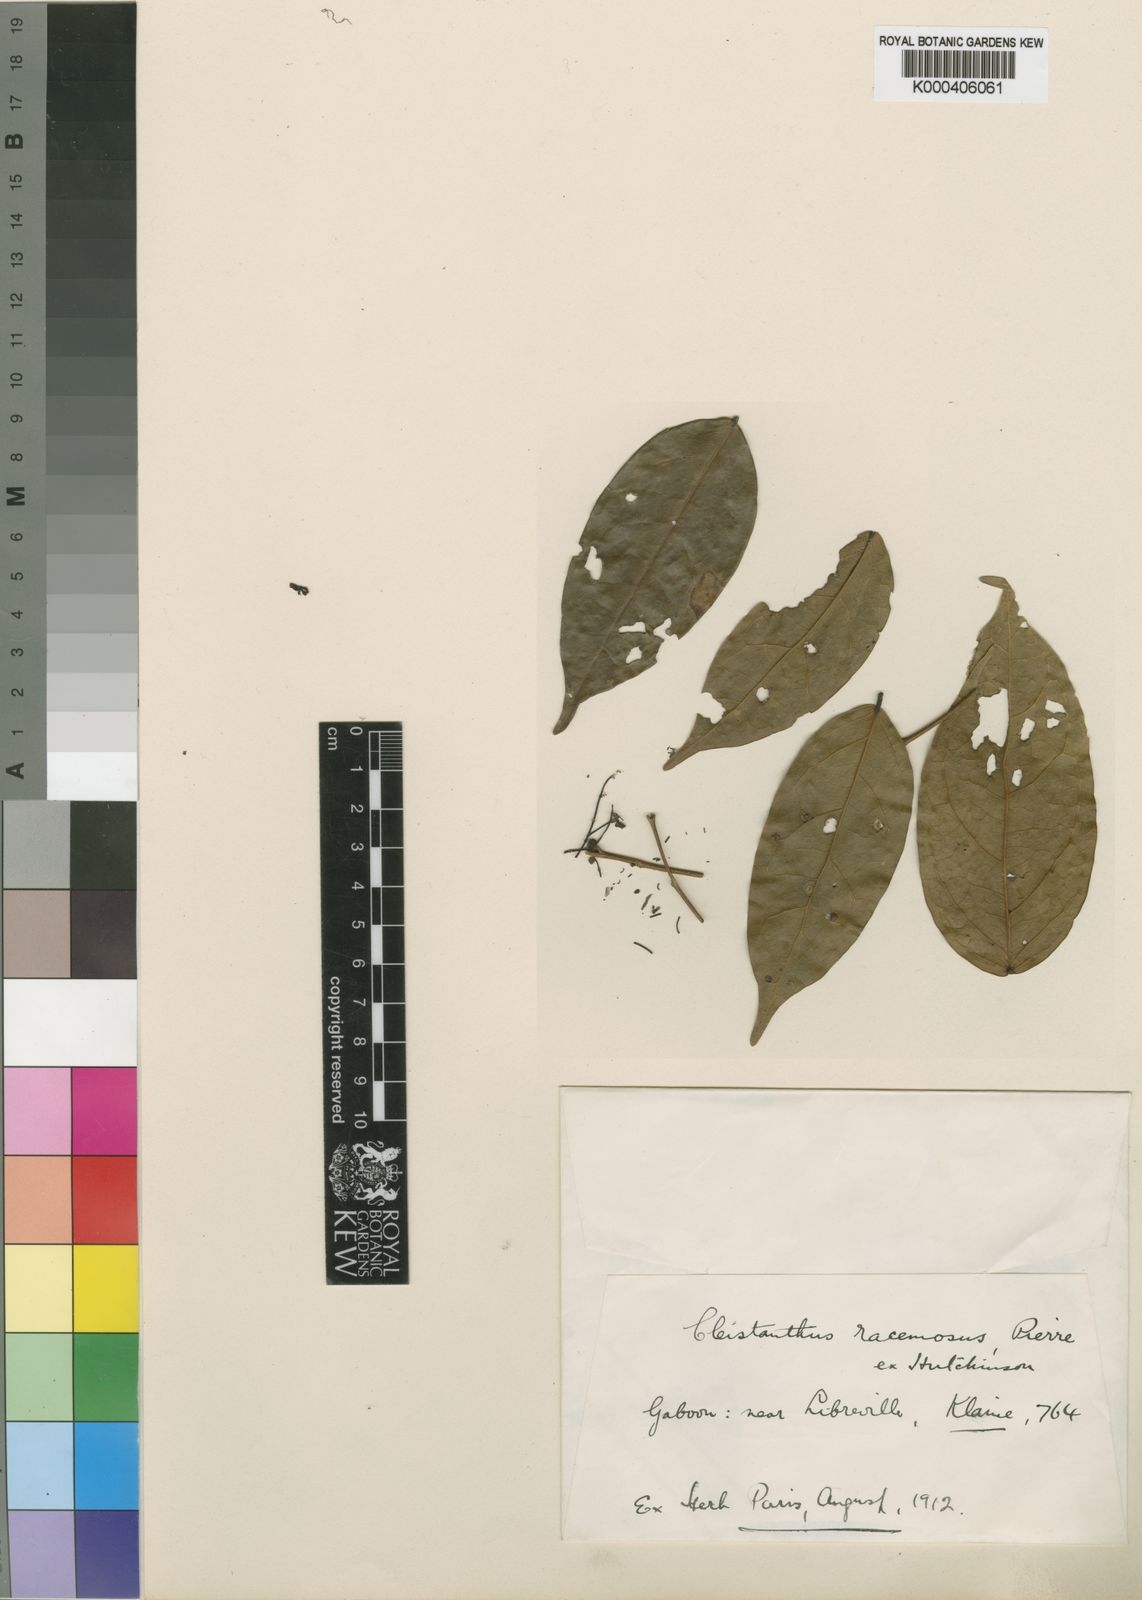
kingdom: Plantae
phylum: Tracheophyta
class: Magnoliopsida
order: Malpighiales
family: Phyllanthaceae
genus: Cleistanthus
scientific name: Cleistanthus
